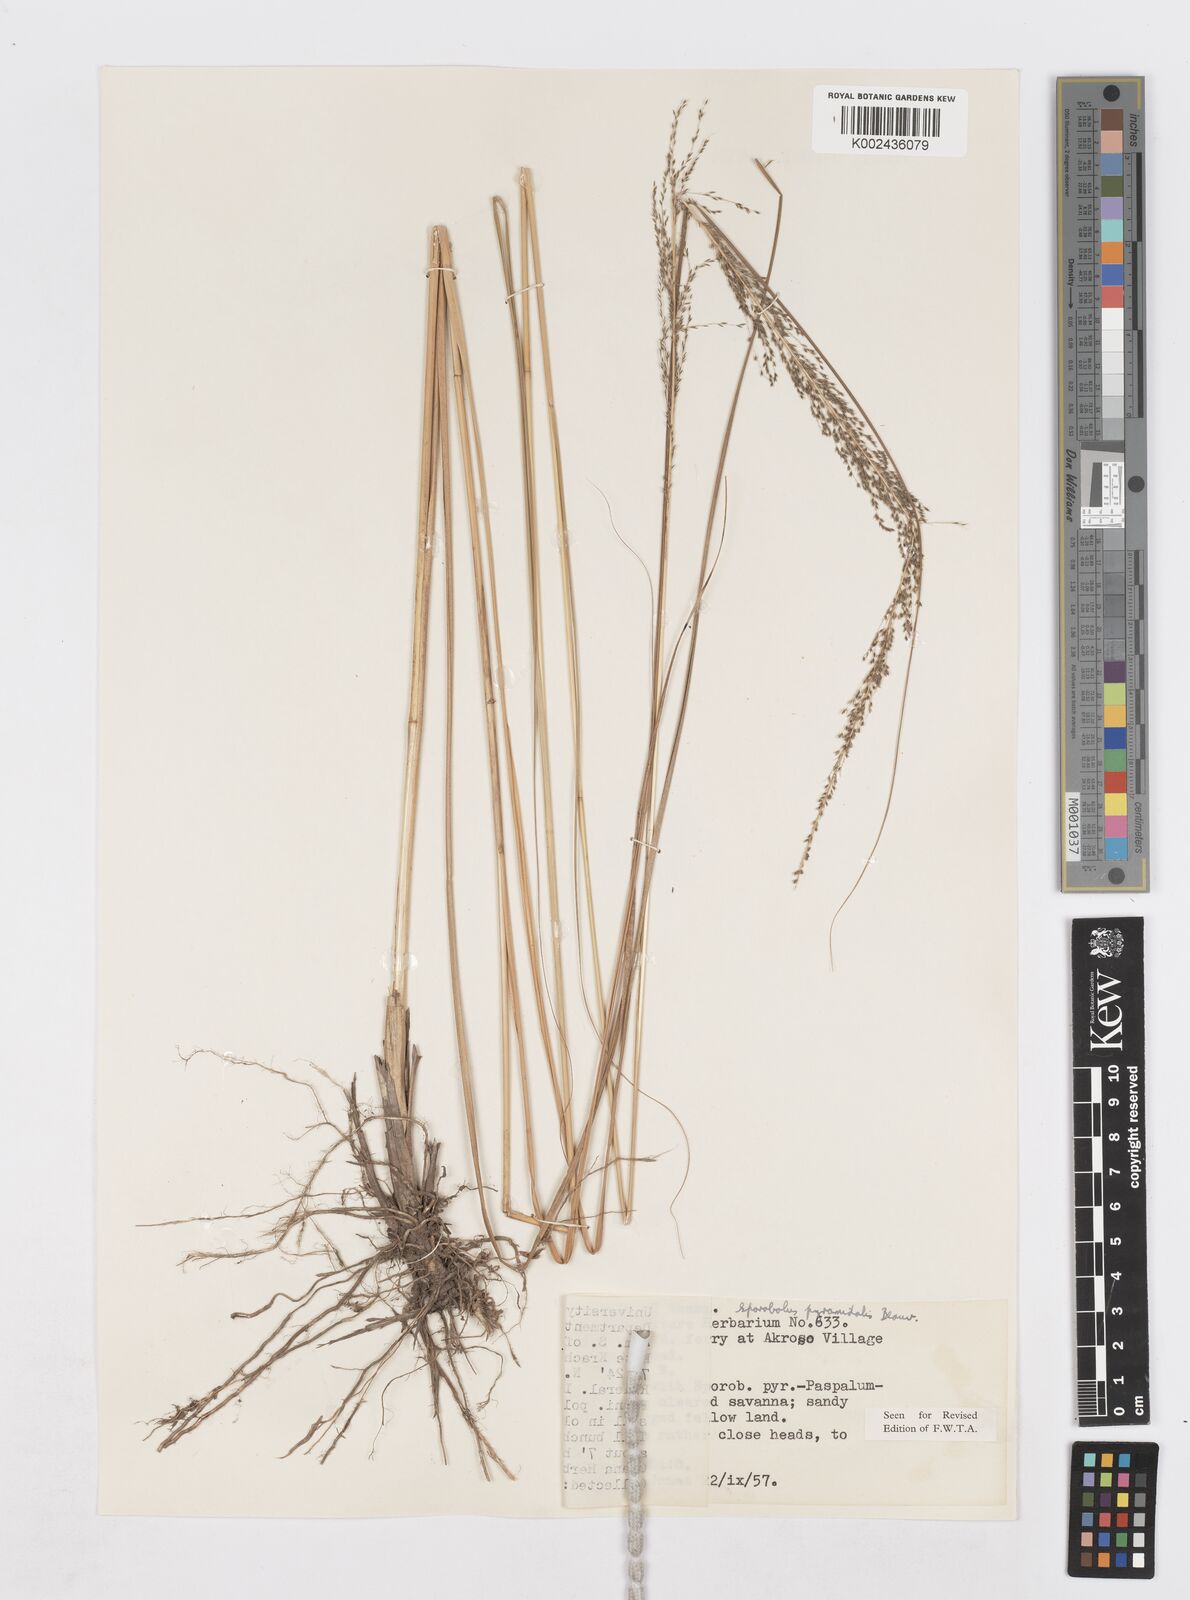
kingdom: Plantae
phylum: Tracheophyta
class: Liliopsida
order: Poales
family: Poaceae
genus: Sporobolus
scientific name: Sporobolus pyramidalis
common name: West indian dropseed
